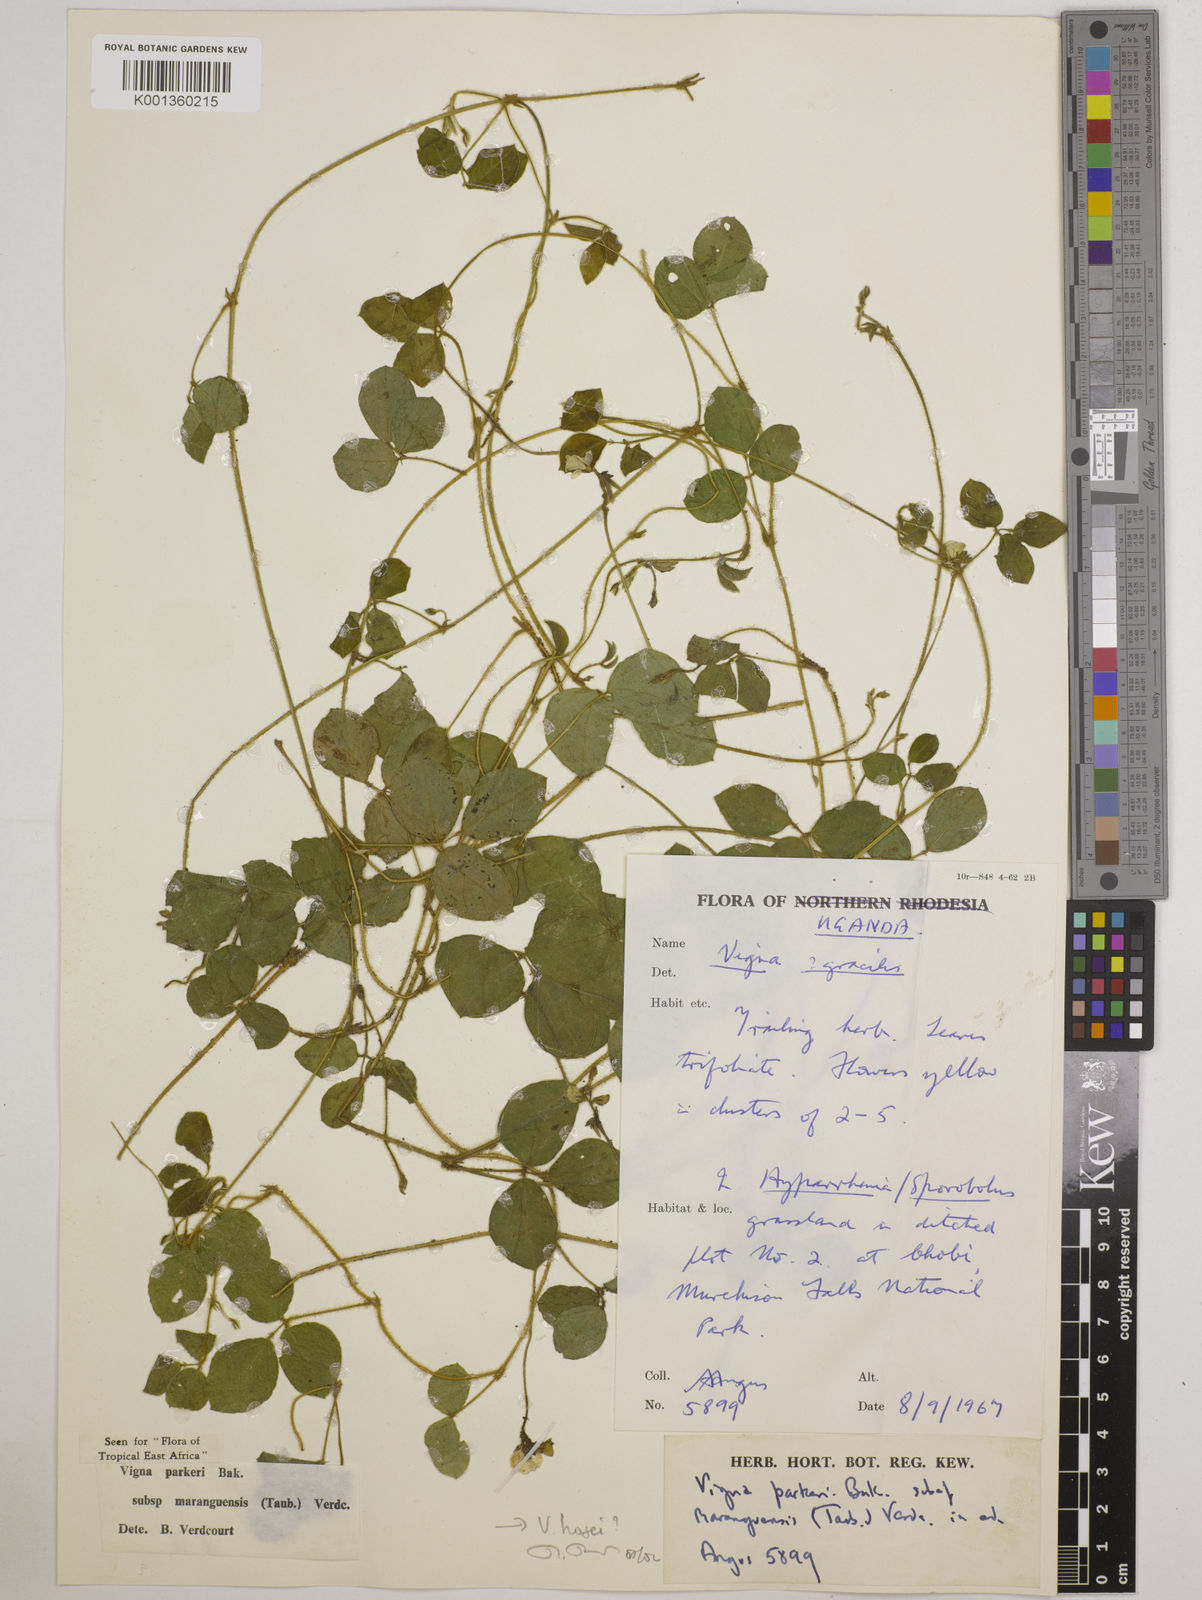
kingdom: Plantae
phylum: Tracheophyta
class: Magnoliopsida
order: Fabales
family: Fabaceae
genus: Vigna
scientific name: Vigna hosei
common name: Sarawak-bean
